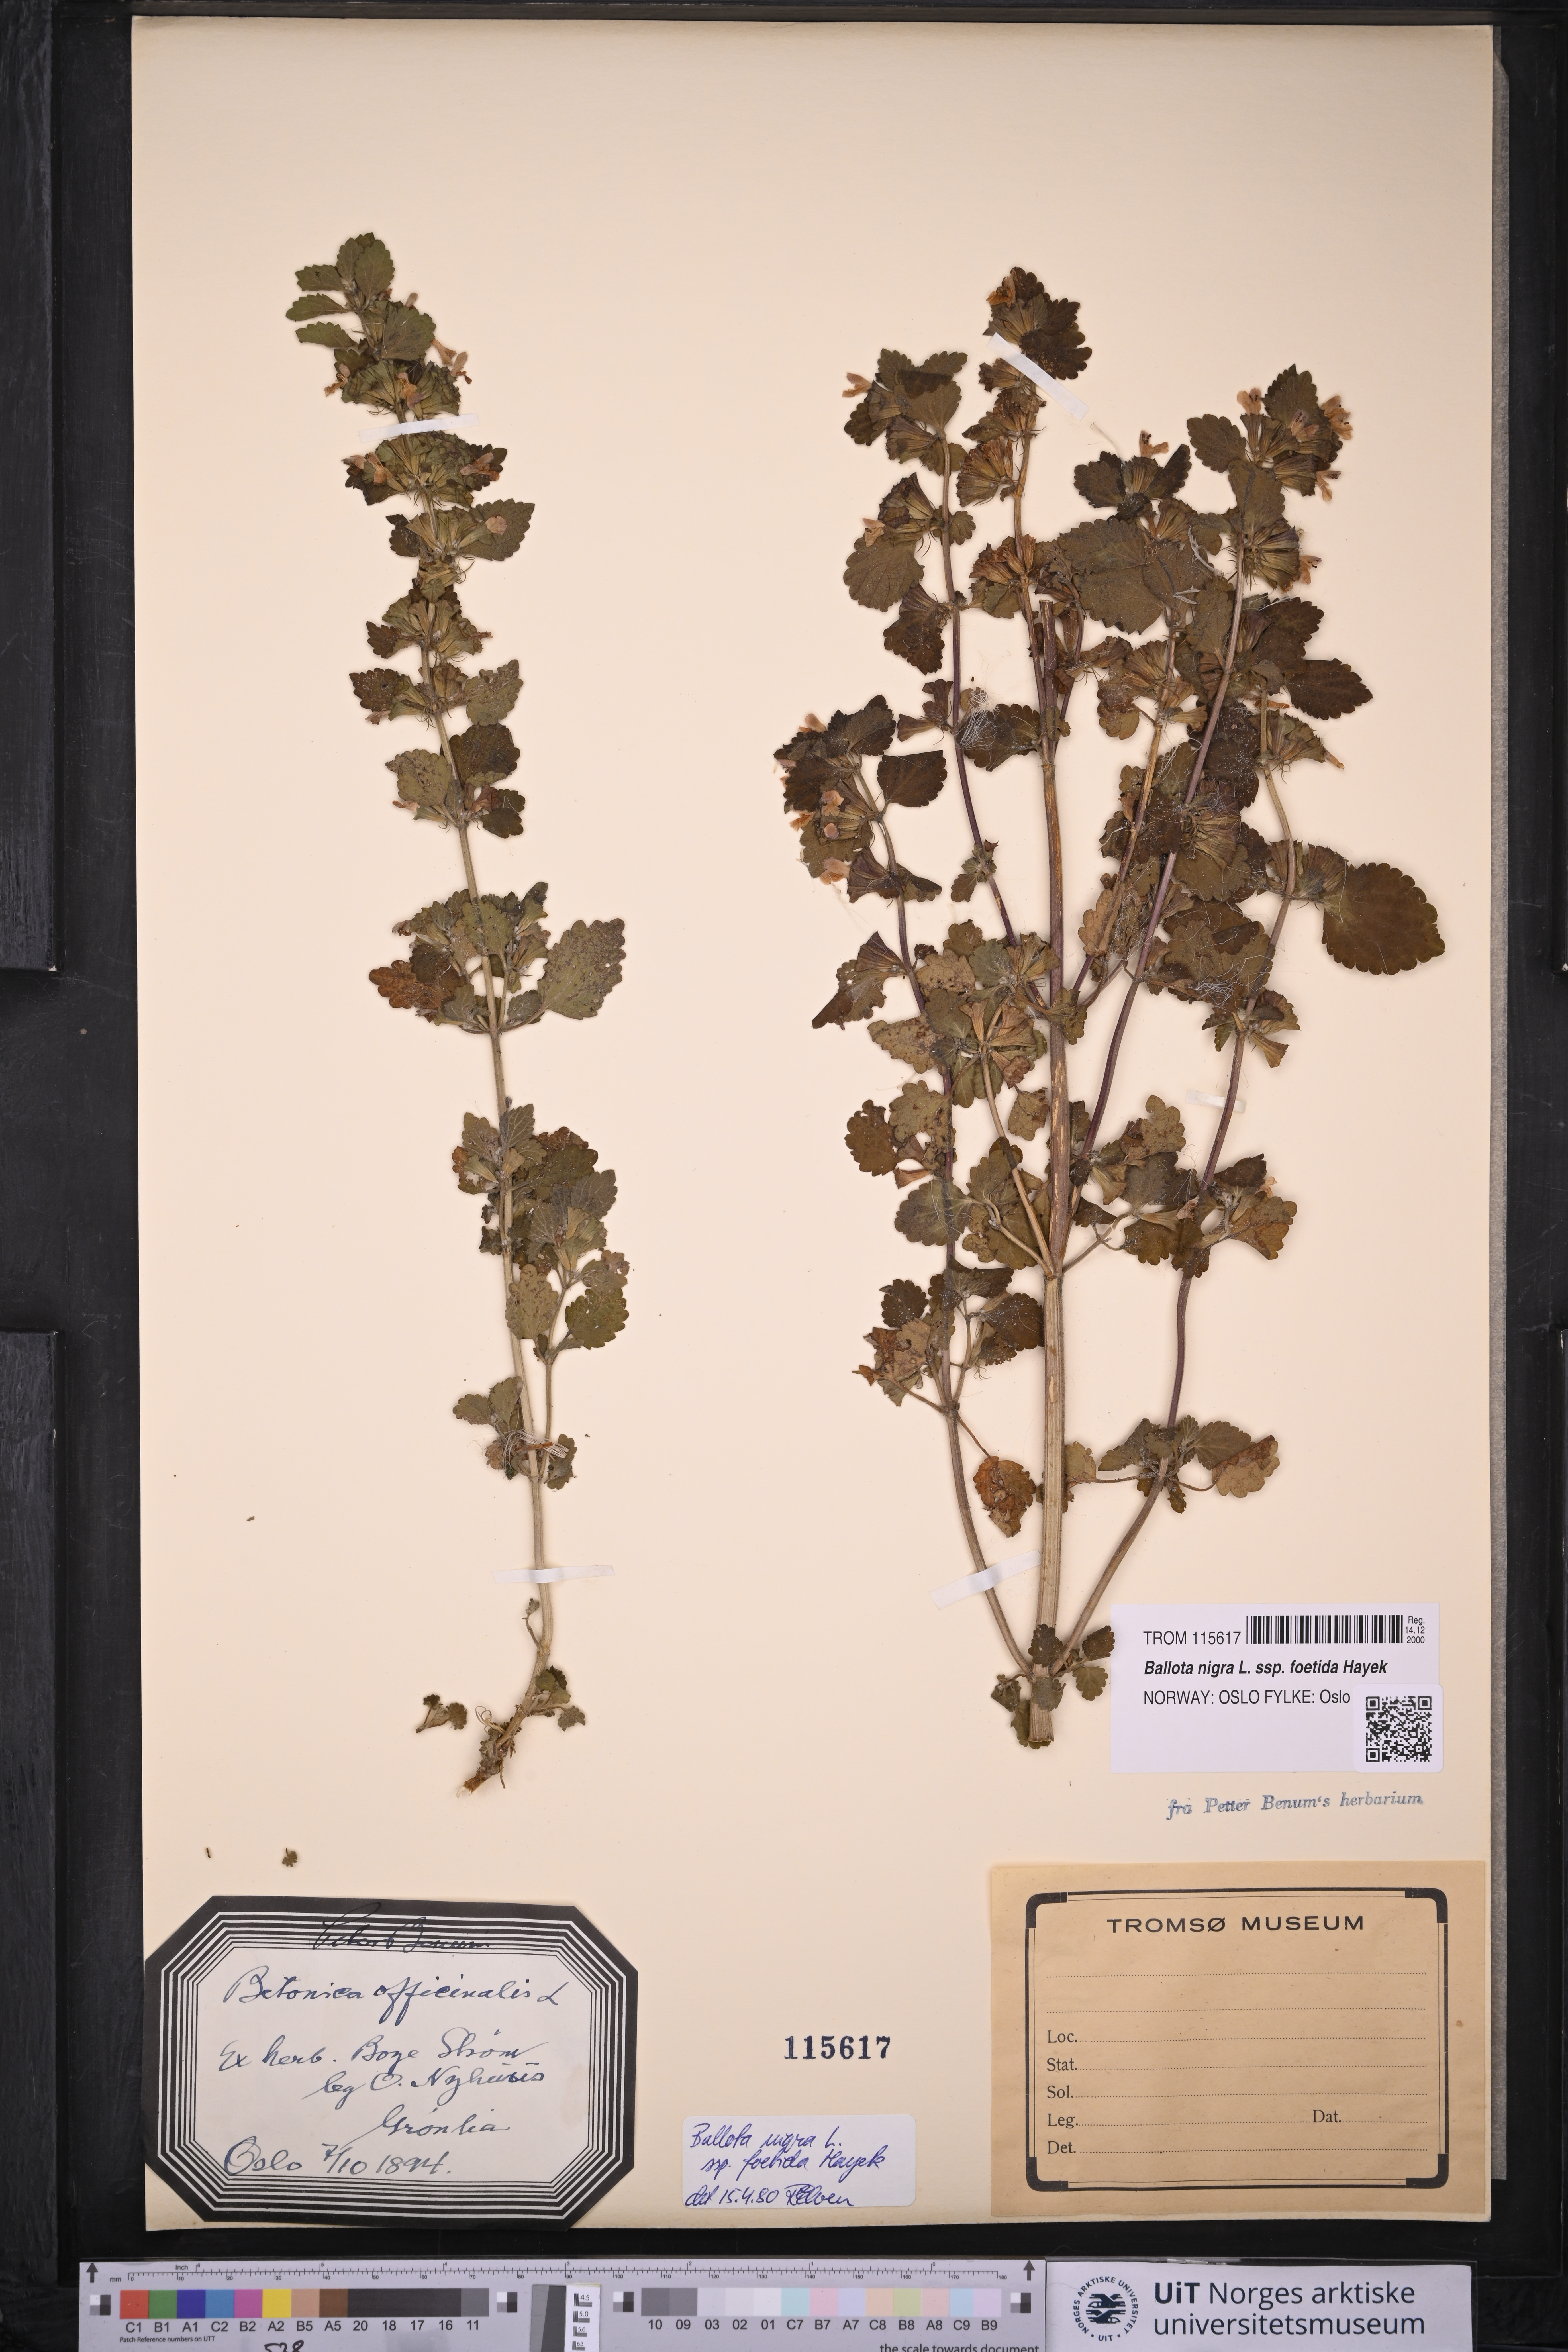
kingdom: Plantae
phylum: Tracheophyta
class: Magnoliopsida
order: Lamiales
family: Lamiaceae
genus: Ballota
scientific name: Ballota nigra
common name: Black horehound
